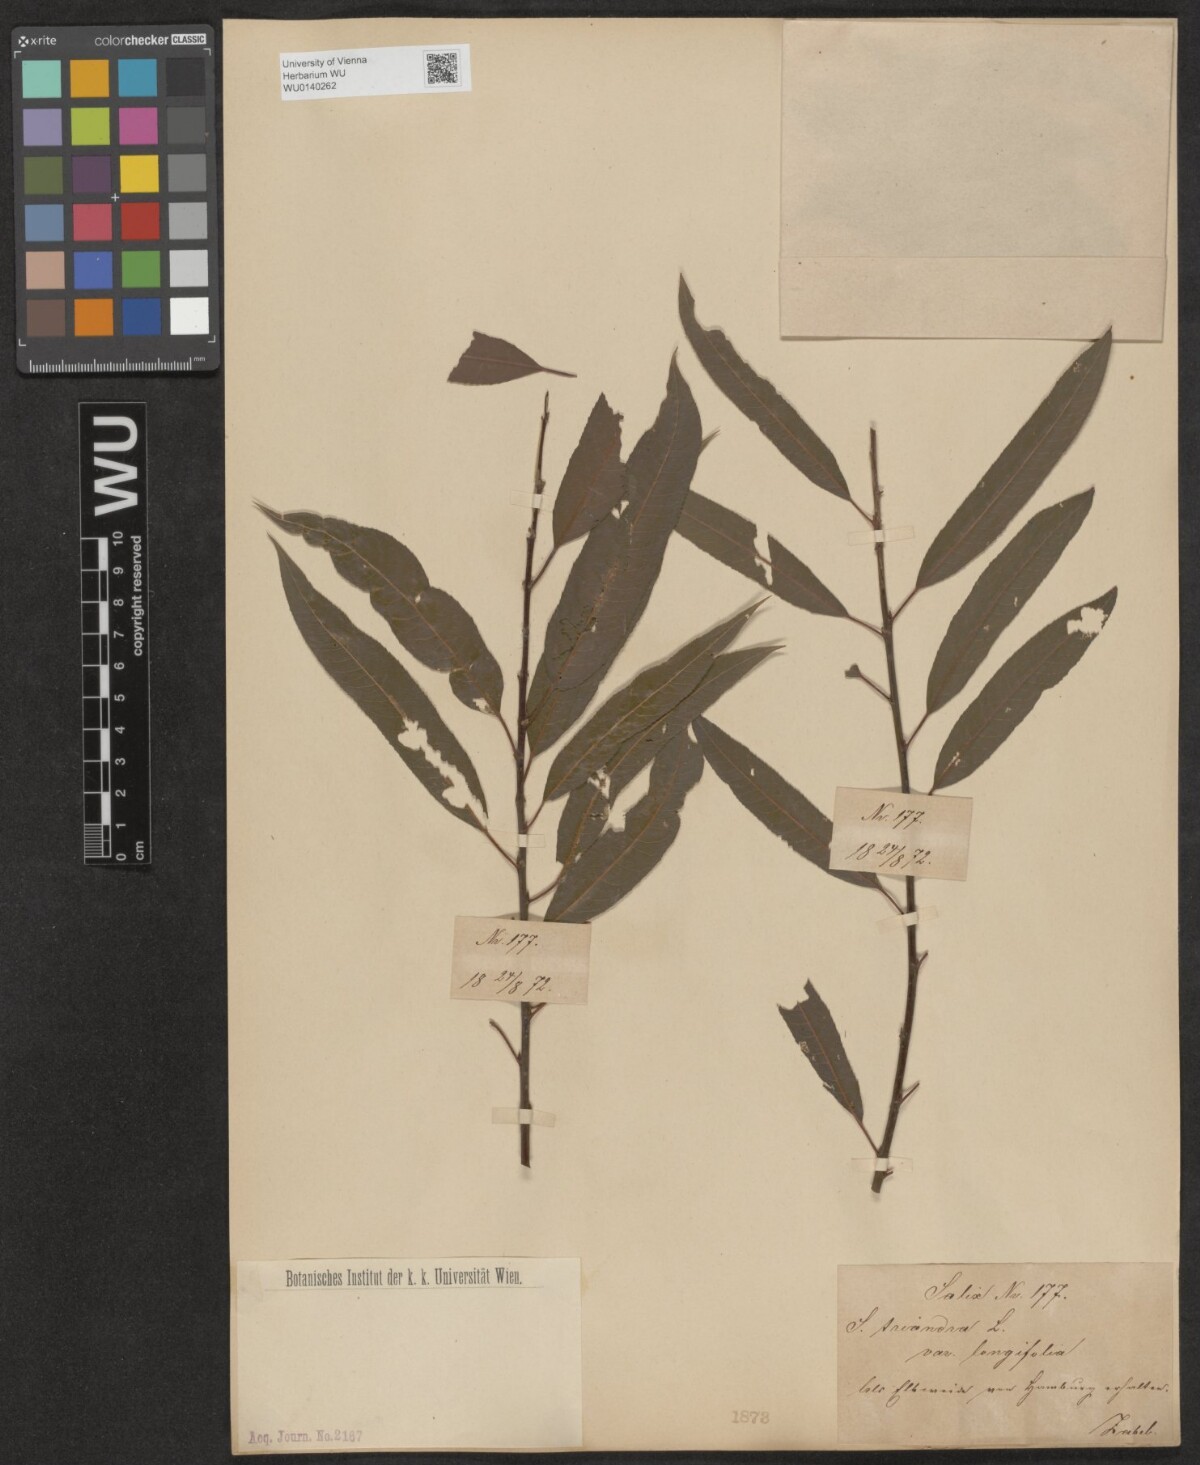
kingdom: Plantae
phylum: Tracheophyta
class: Magnoliopsida
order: Malpighiales
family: Salicaceae
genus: Salix
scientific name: Salix triandra
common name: Almond willow
